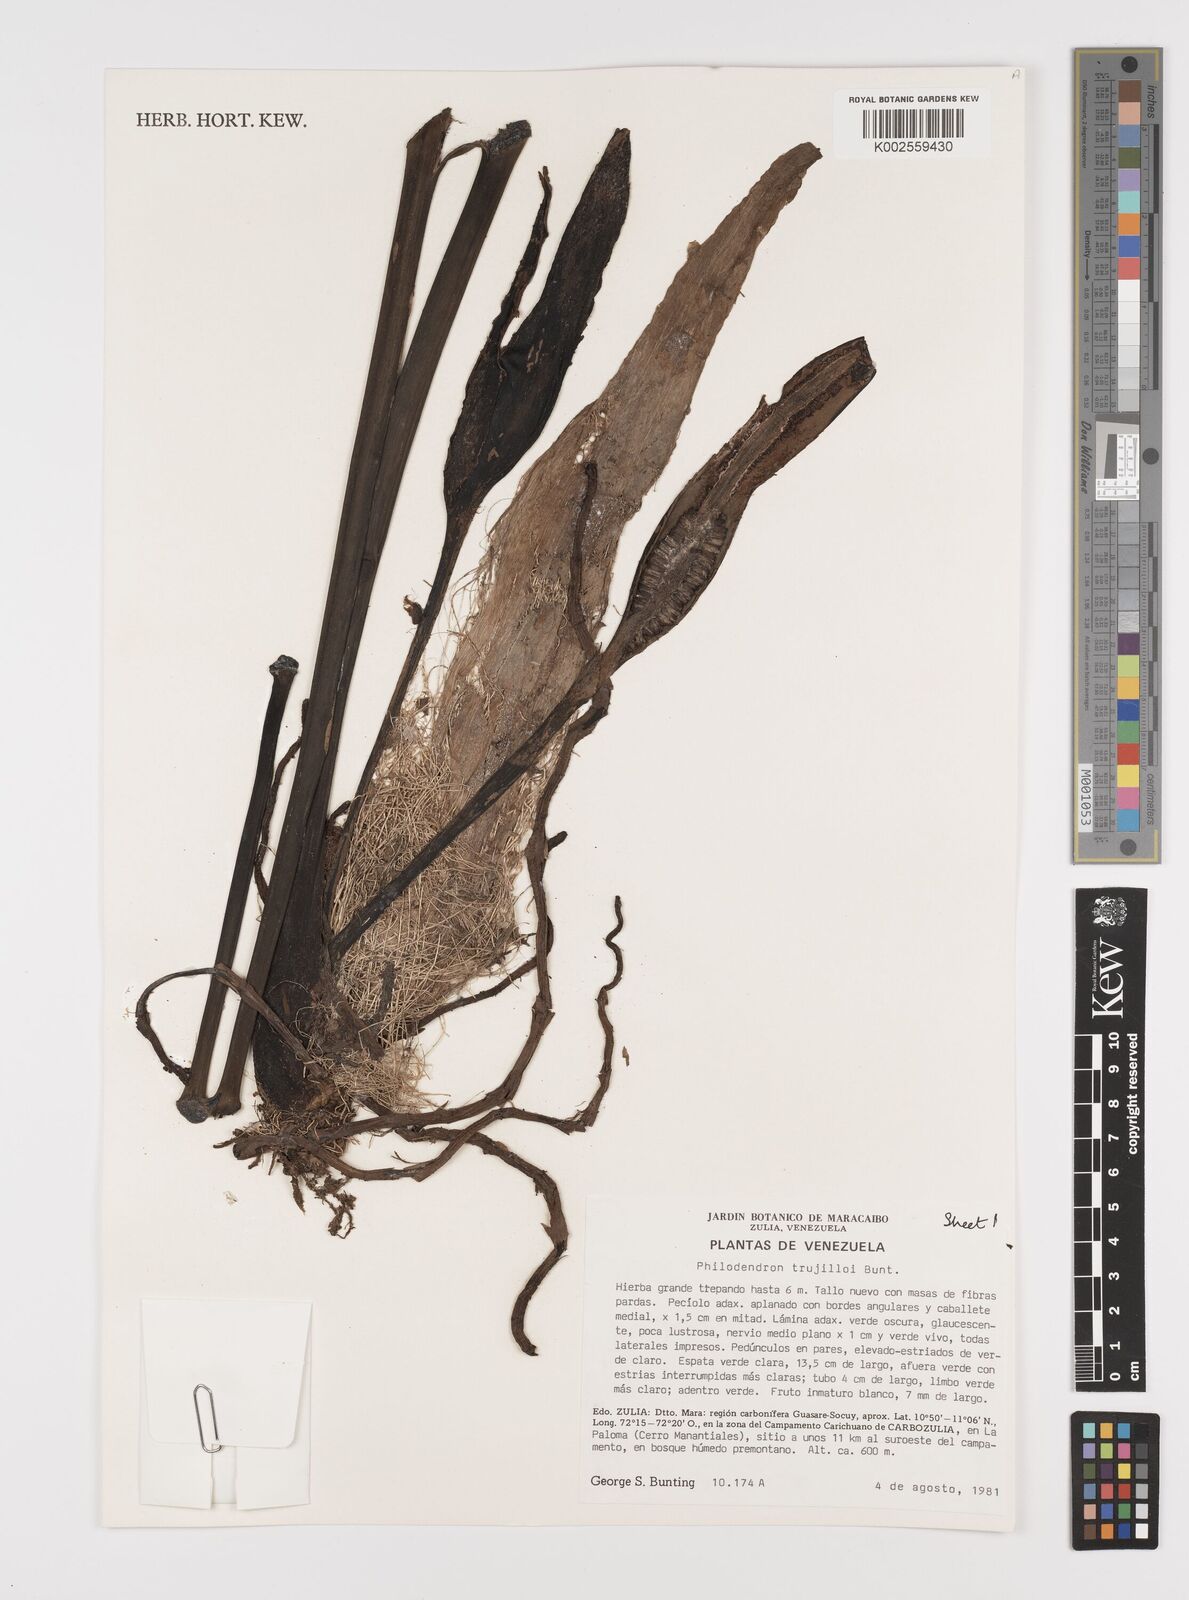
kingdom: Plantae
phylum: Tracheophyta
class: Liliopsida
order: Alismatales
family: Araceae
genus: Philodendron
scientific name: Philodendron trujilloi
